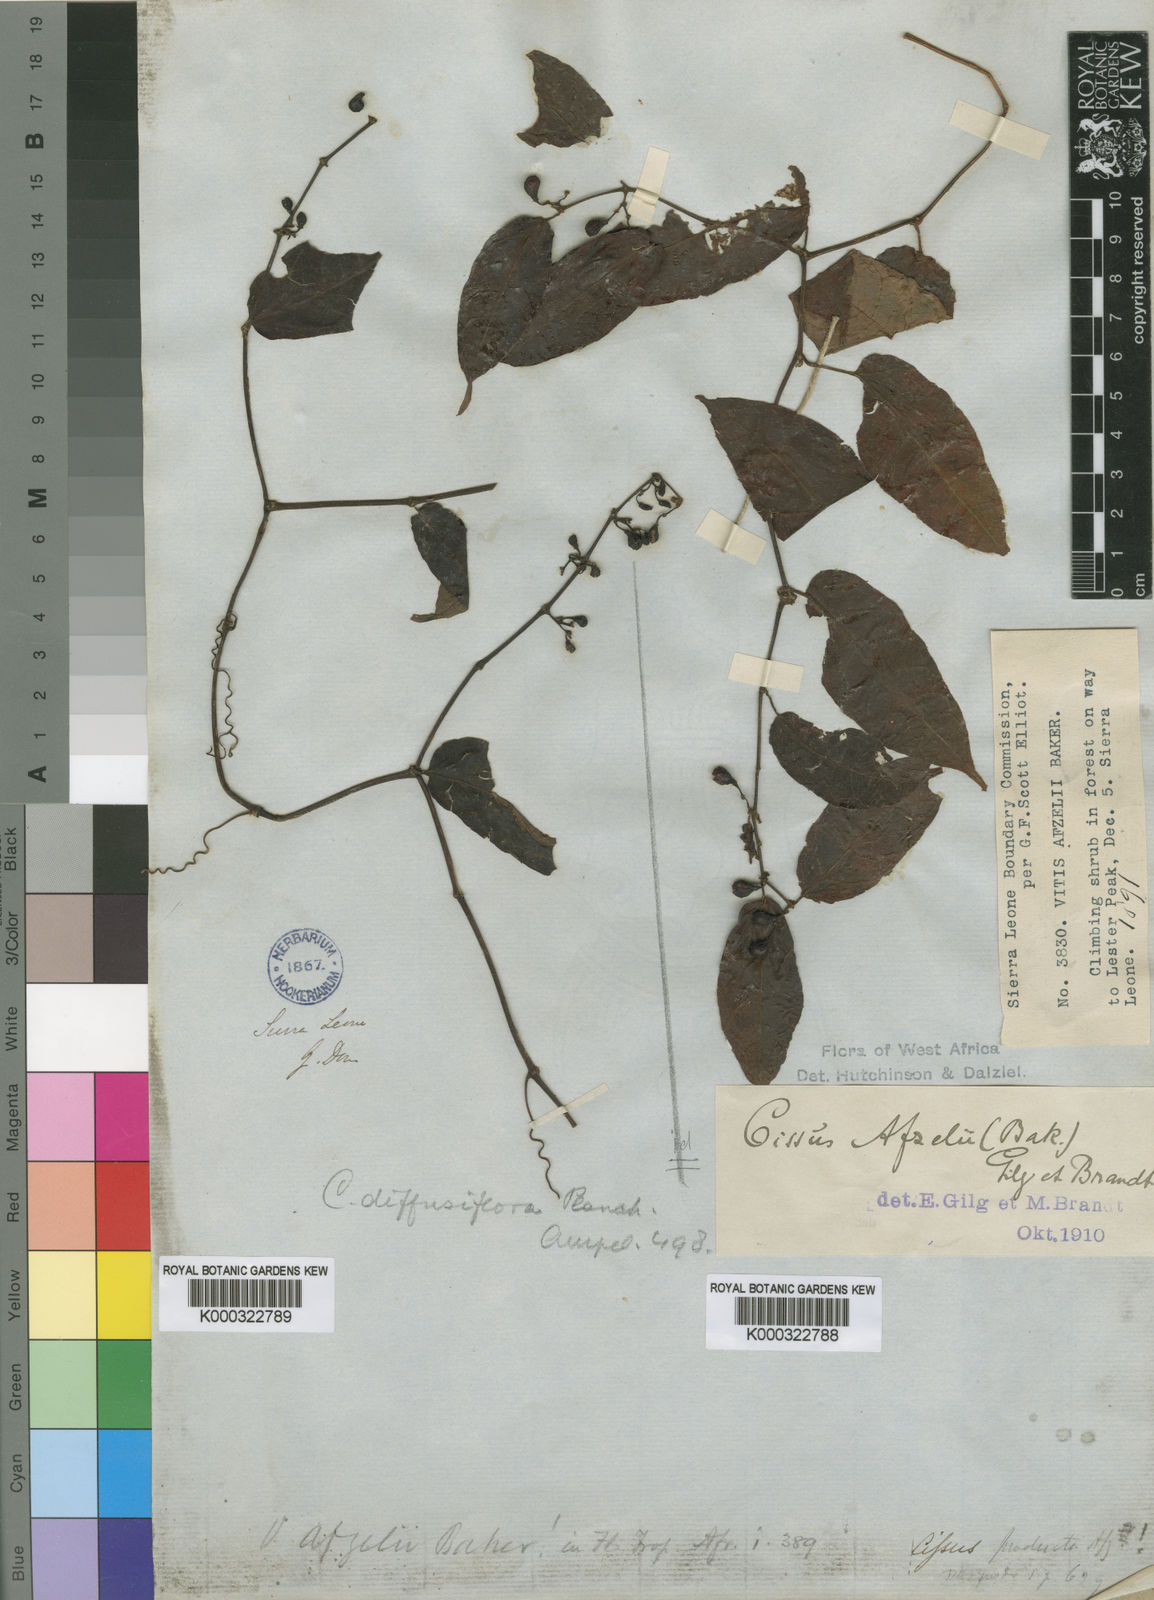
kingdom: Plantae
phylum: Tracheophyta
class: Magnoliopsida
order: Vitales
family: Vitaceae
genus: Cissus
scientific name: Cissus diffusiflora
